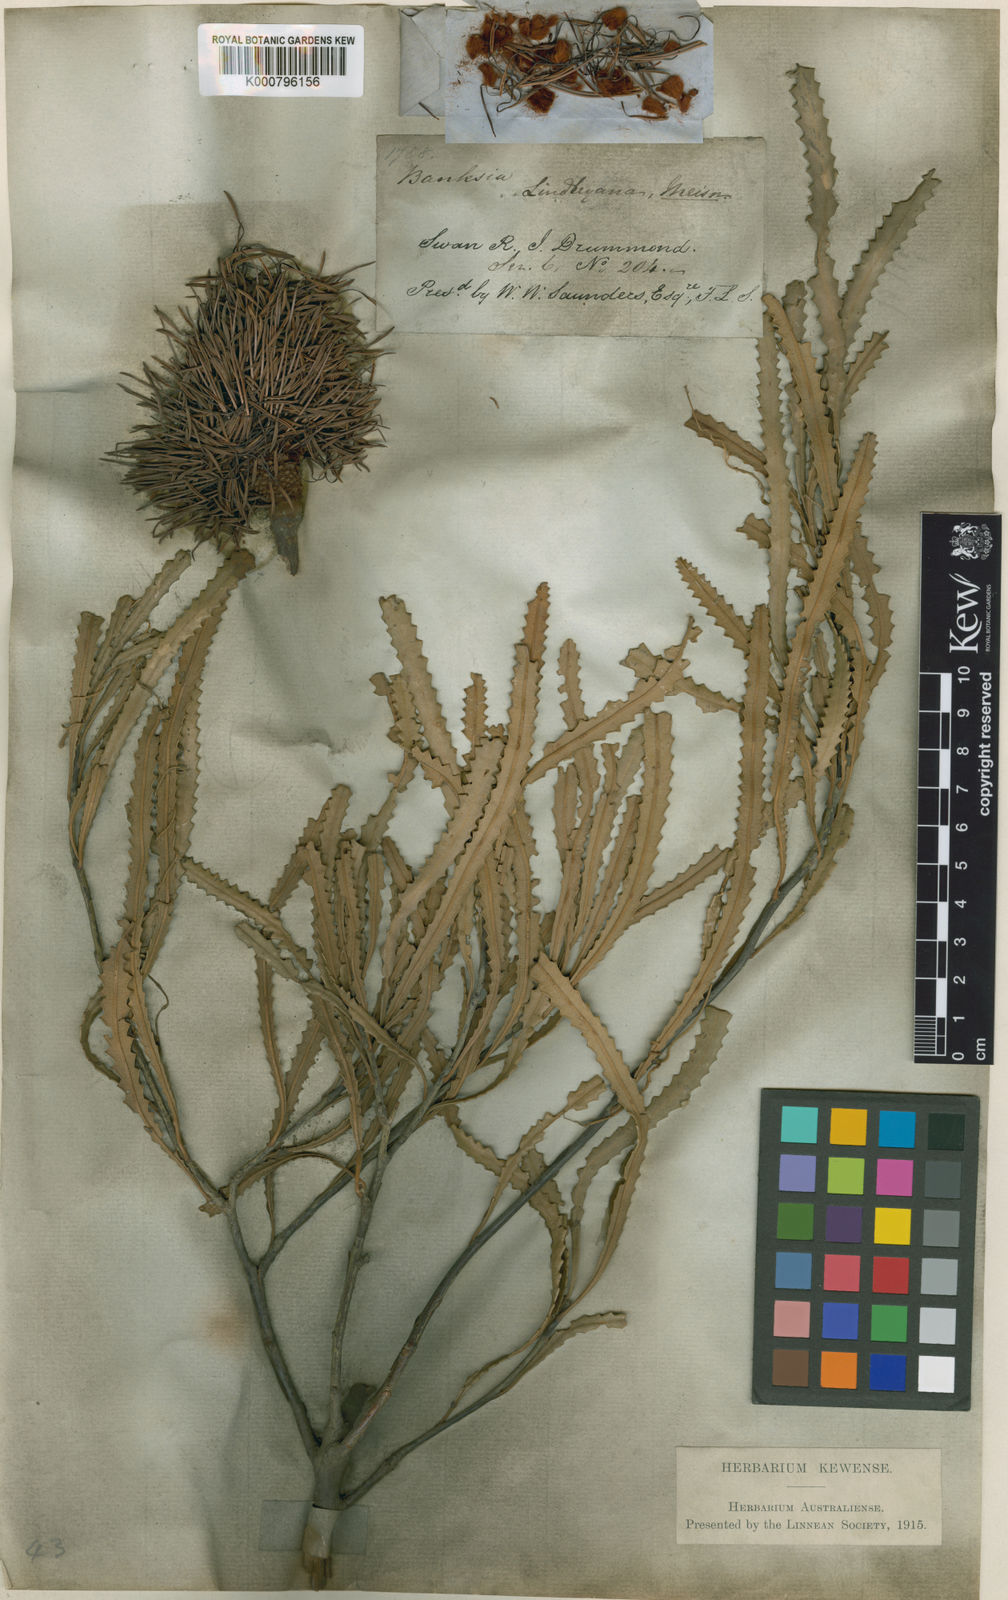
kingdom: Plantae
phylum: Tracheophyta
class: Magnoliopsida
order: Proteales
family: Proteaceae
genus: Banksia
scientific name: Banksia lindleyana
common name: Porcupine banksia
